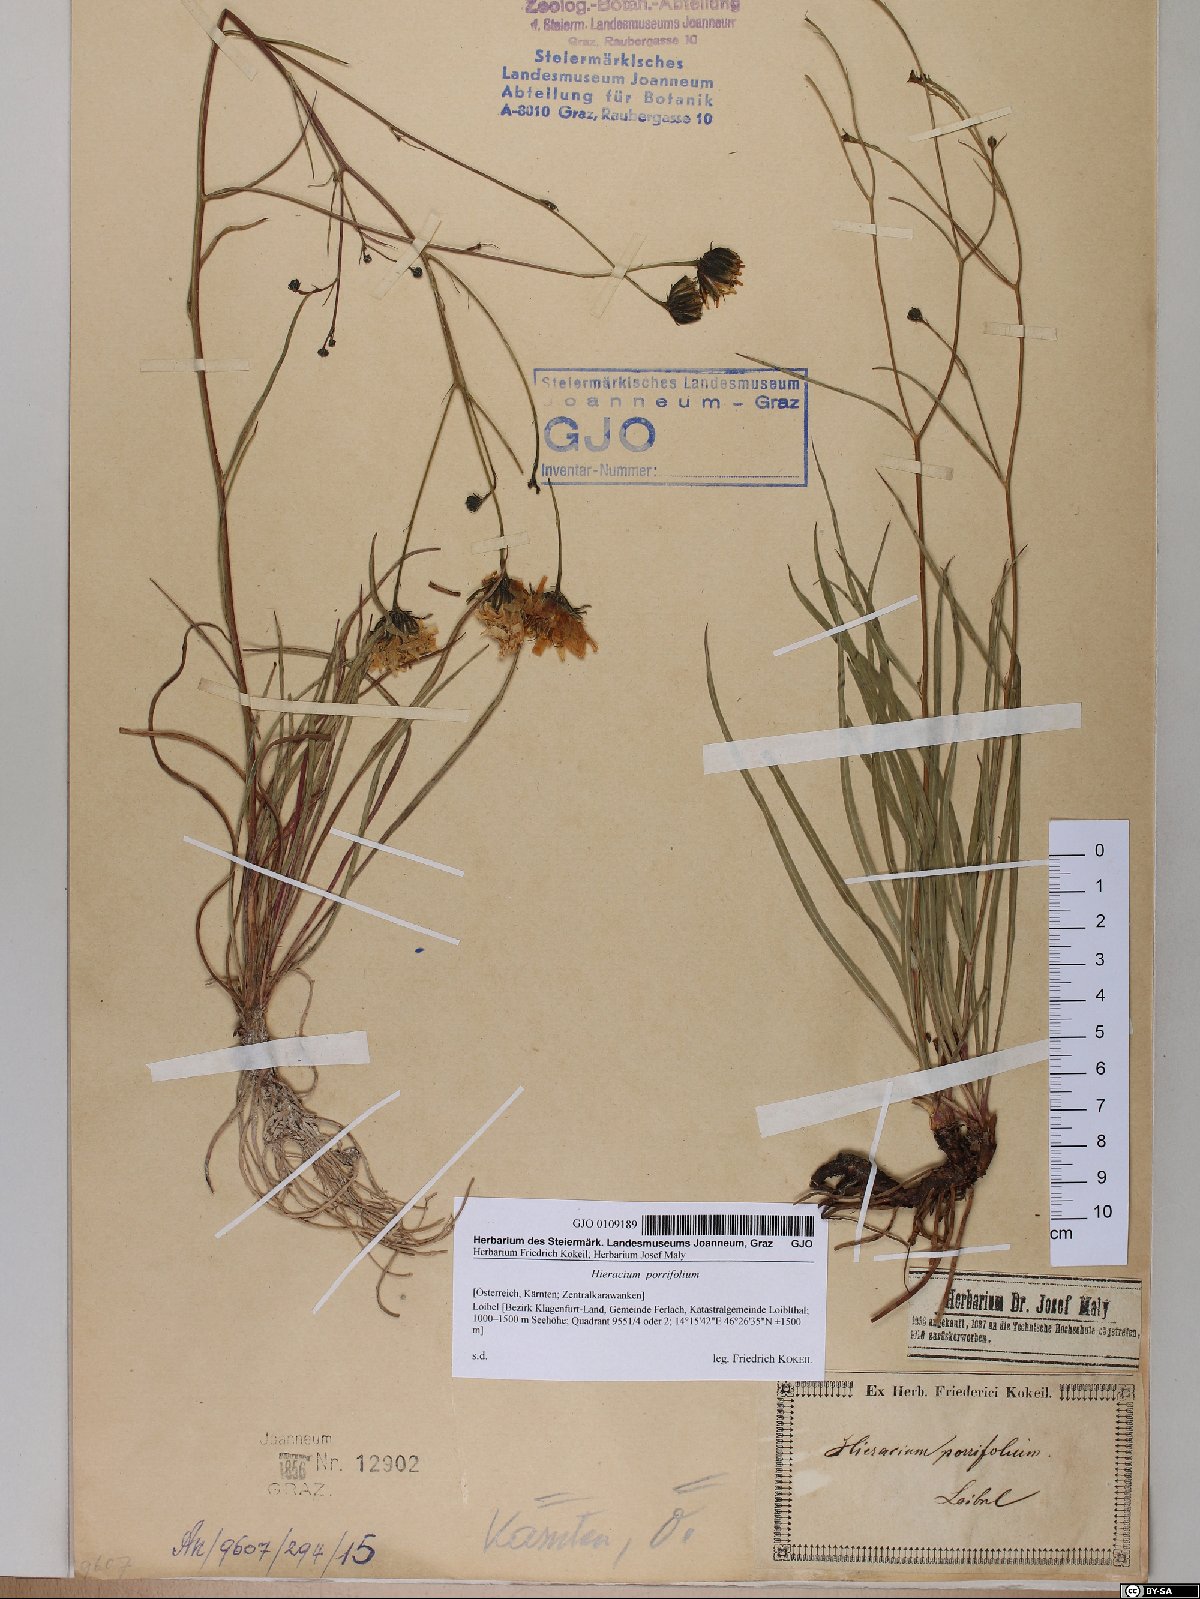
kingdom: Plantae
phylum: Tracheophyta
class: Magnoliopsida
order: Asterales
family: Asteraceae
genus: Hieracium
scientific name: Hieracium porrifolium
